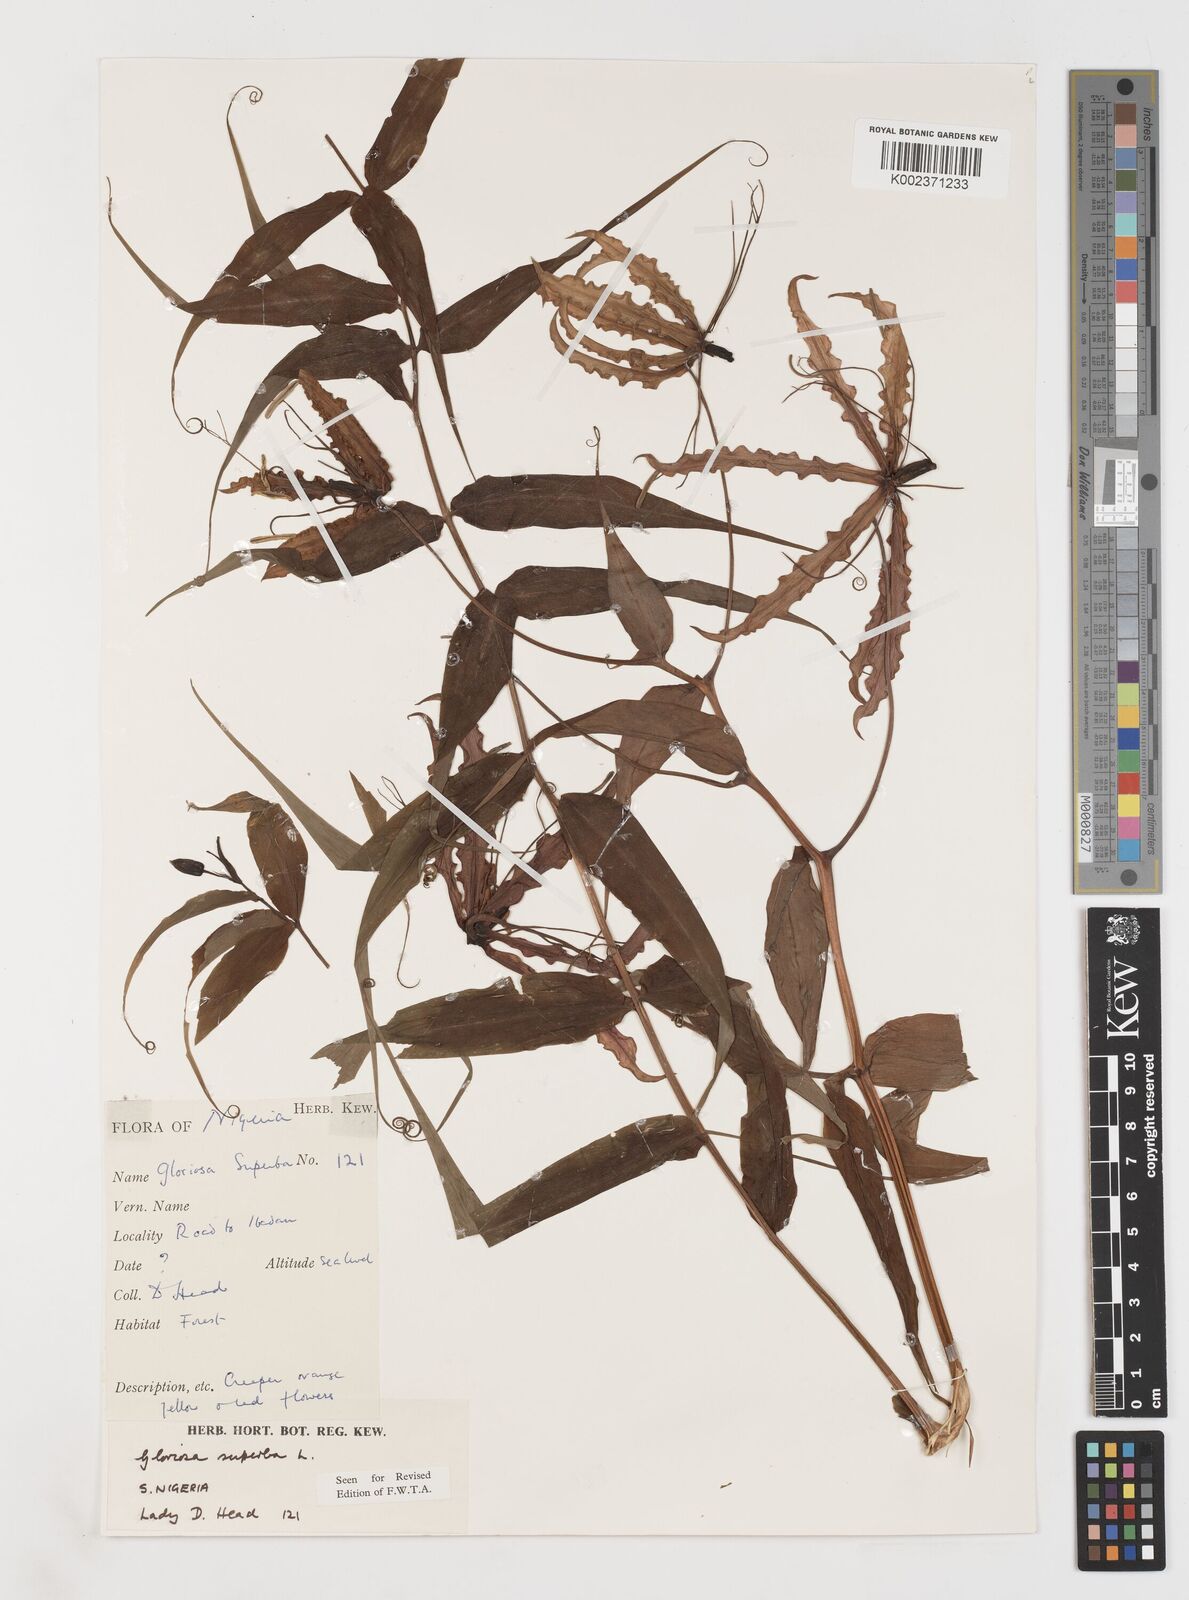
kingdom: Plantae
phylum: Tracheophyta
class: Liliopsida
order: Liliales
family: Colchicaceae
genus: Gloriosa
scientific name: Gloriosa superba
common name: Flame lily
